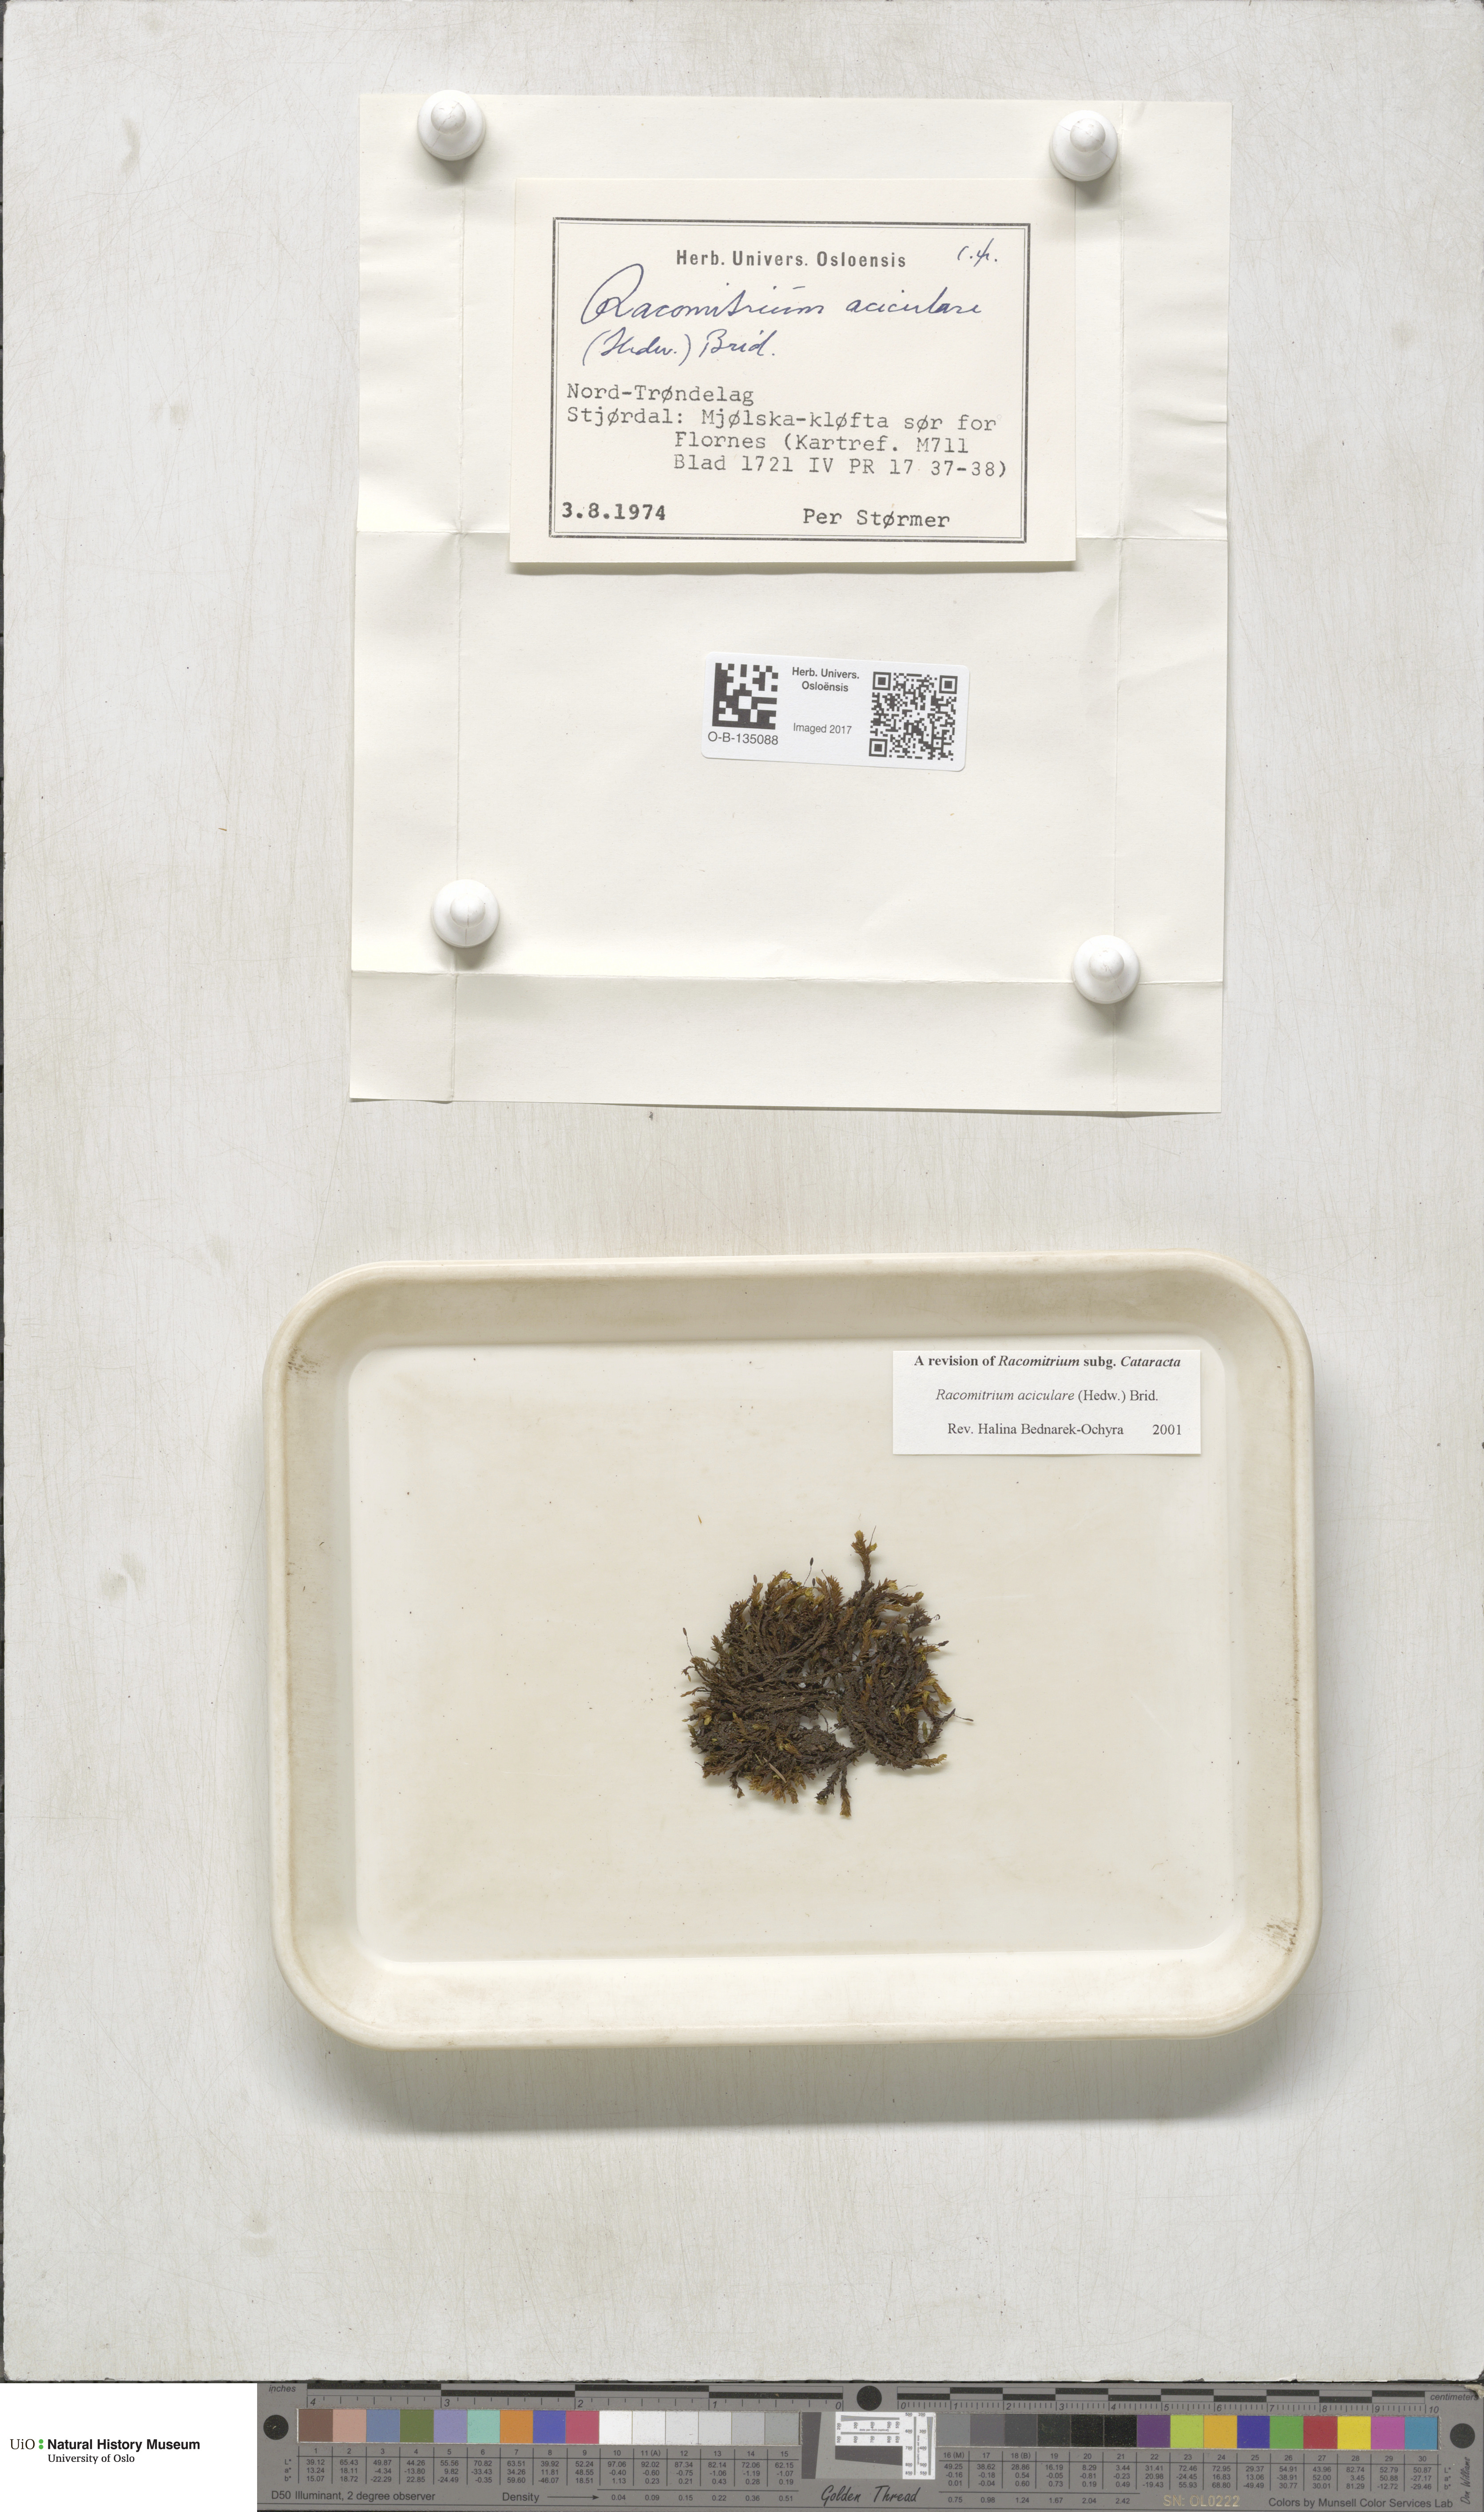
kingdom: Plantae
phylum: Bryophyta
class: Bryopsida
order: Grimmiales
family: Grimmiaceae
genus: Codriophorus
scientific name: Codriophorus acicularis
